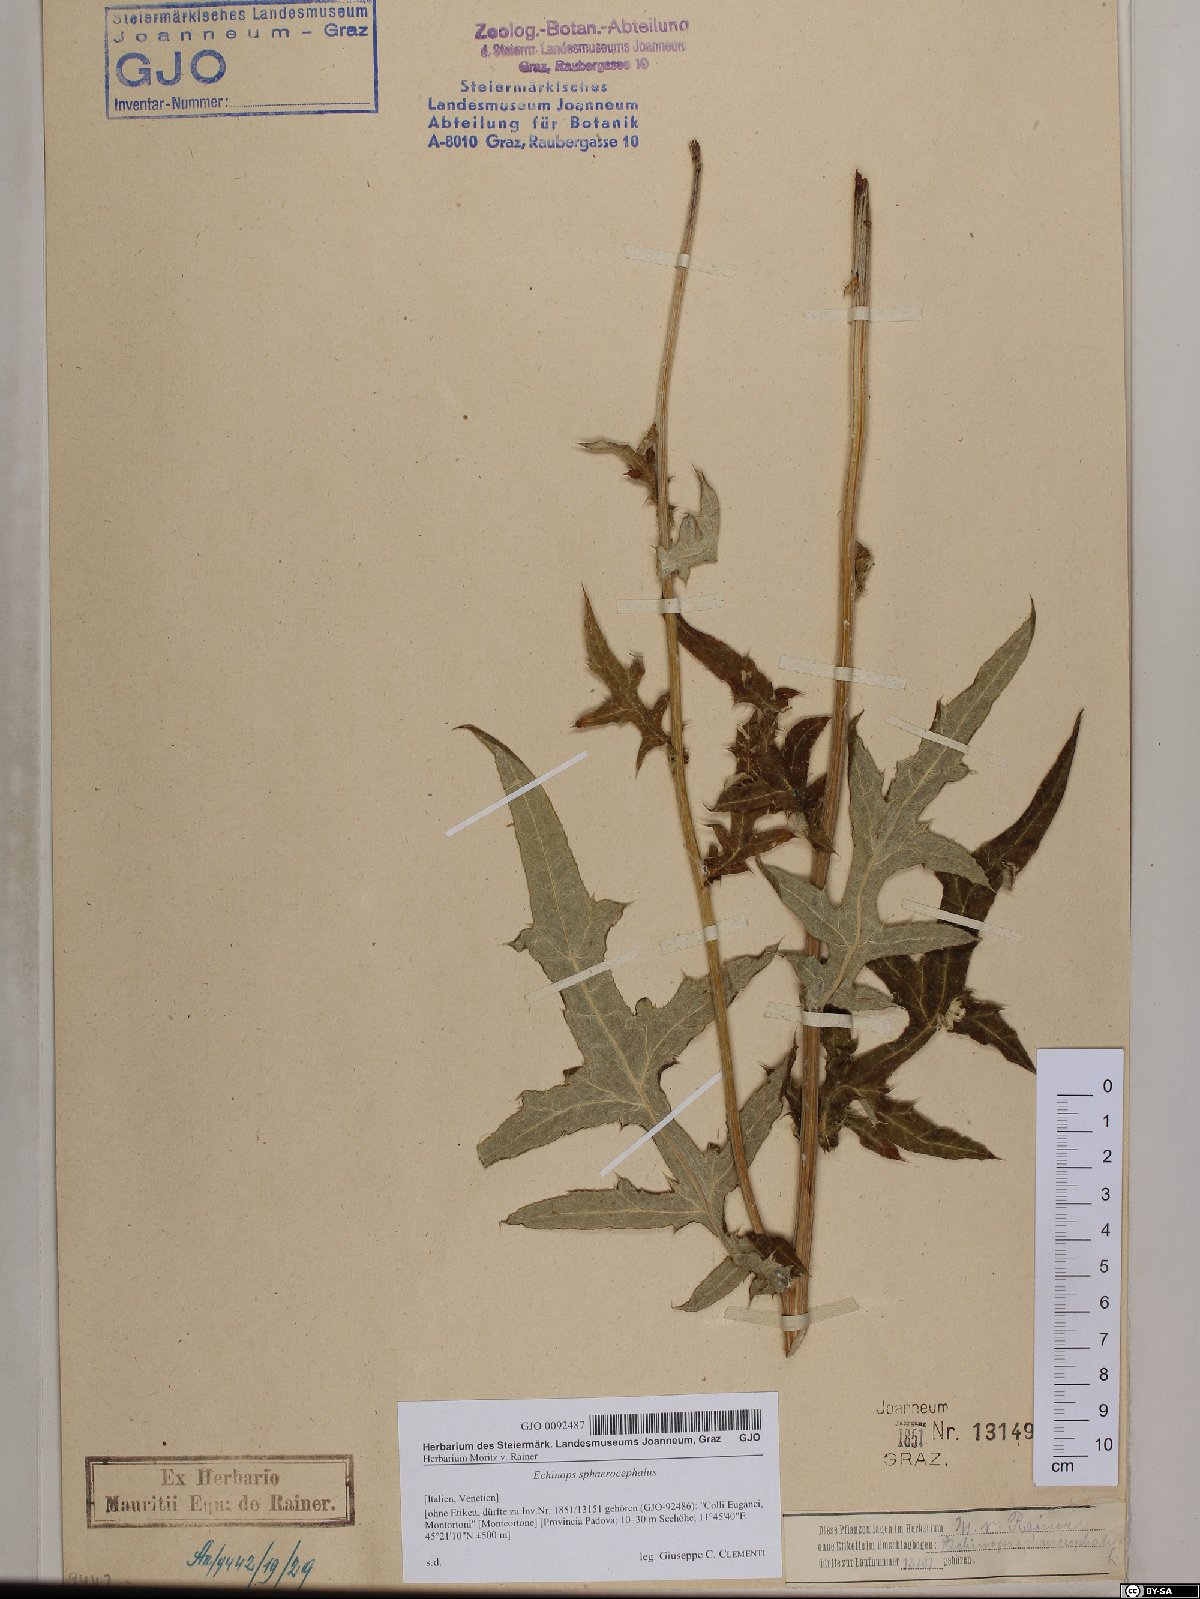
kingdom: Plantae
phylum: Tracheophyta
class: Magnoliopsida
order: Asterales
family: Asteraceae
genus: Echinops
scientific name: Echinops sphaerocephalus
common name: Glandular globe-thistle
